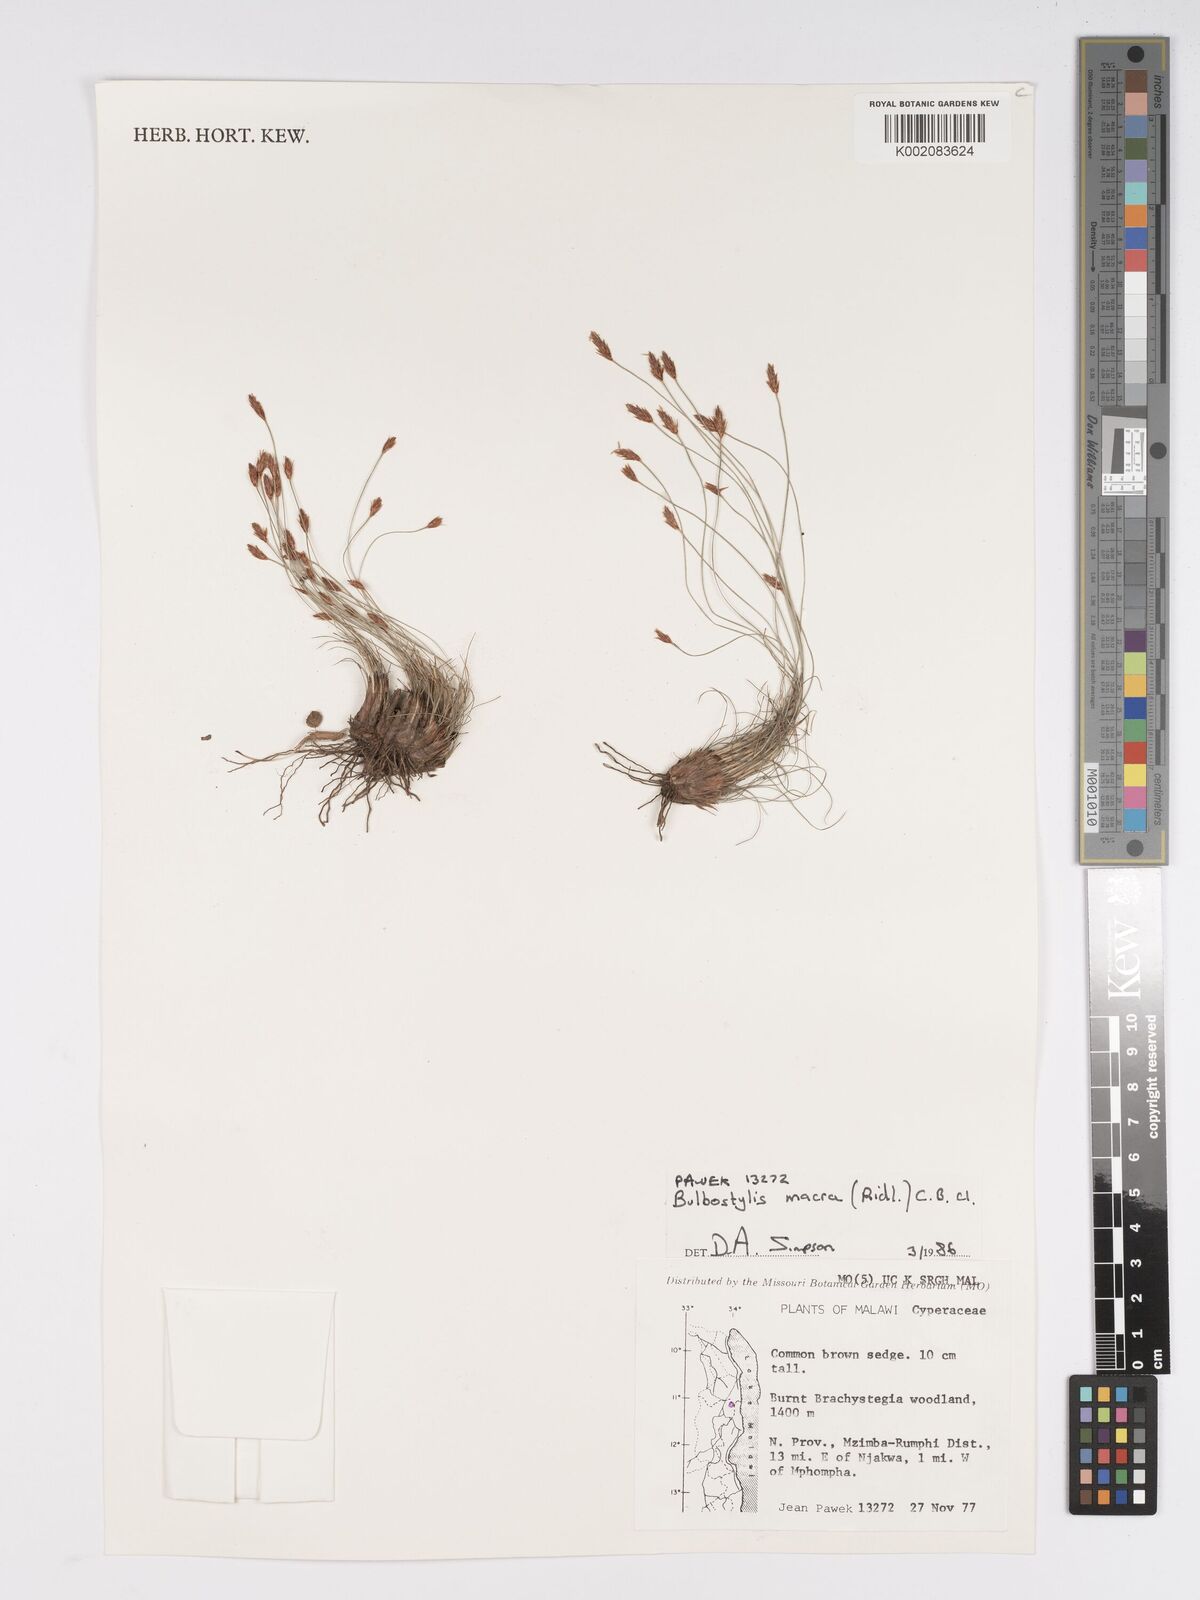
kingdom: Plantae
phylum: Tracheophyta
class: Liliopsida
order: Poales
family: Cyperaceae
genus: Bulbostylis
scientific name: Bulbostylis macra
